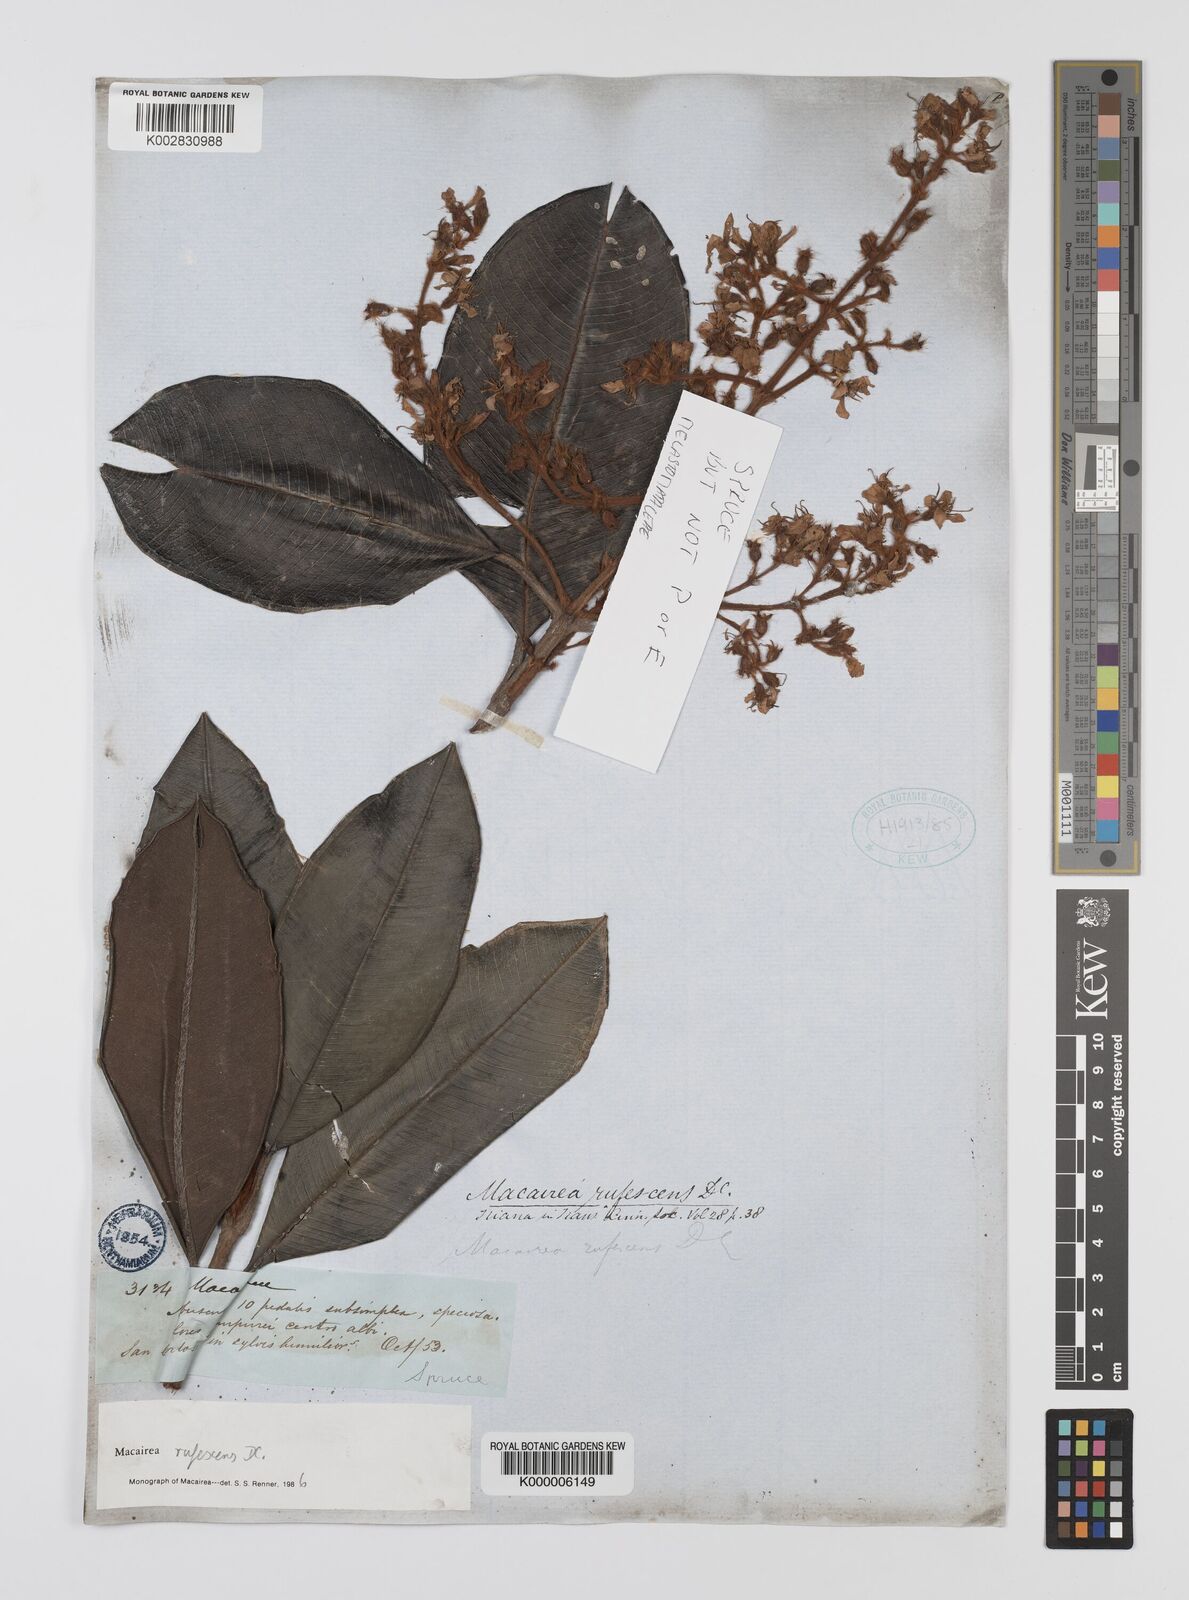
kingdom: Plantae
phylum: Tracheophyta
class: Magnoliopsida
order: Myrtales
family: Melastomataceae
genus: Macairea
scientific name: Macairea
